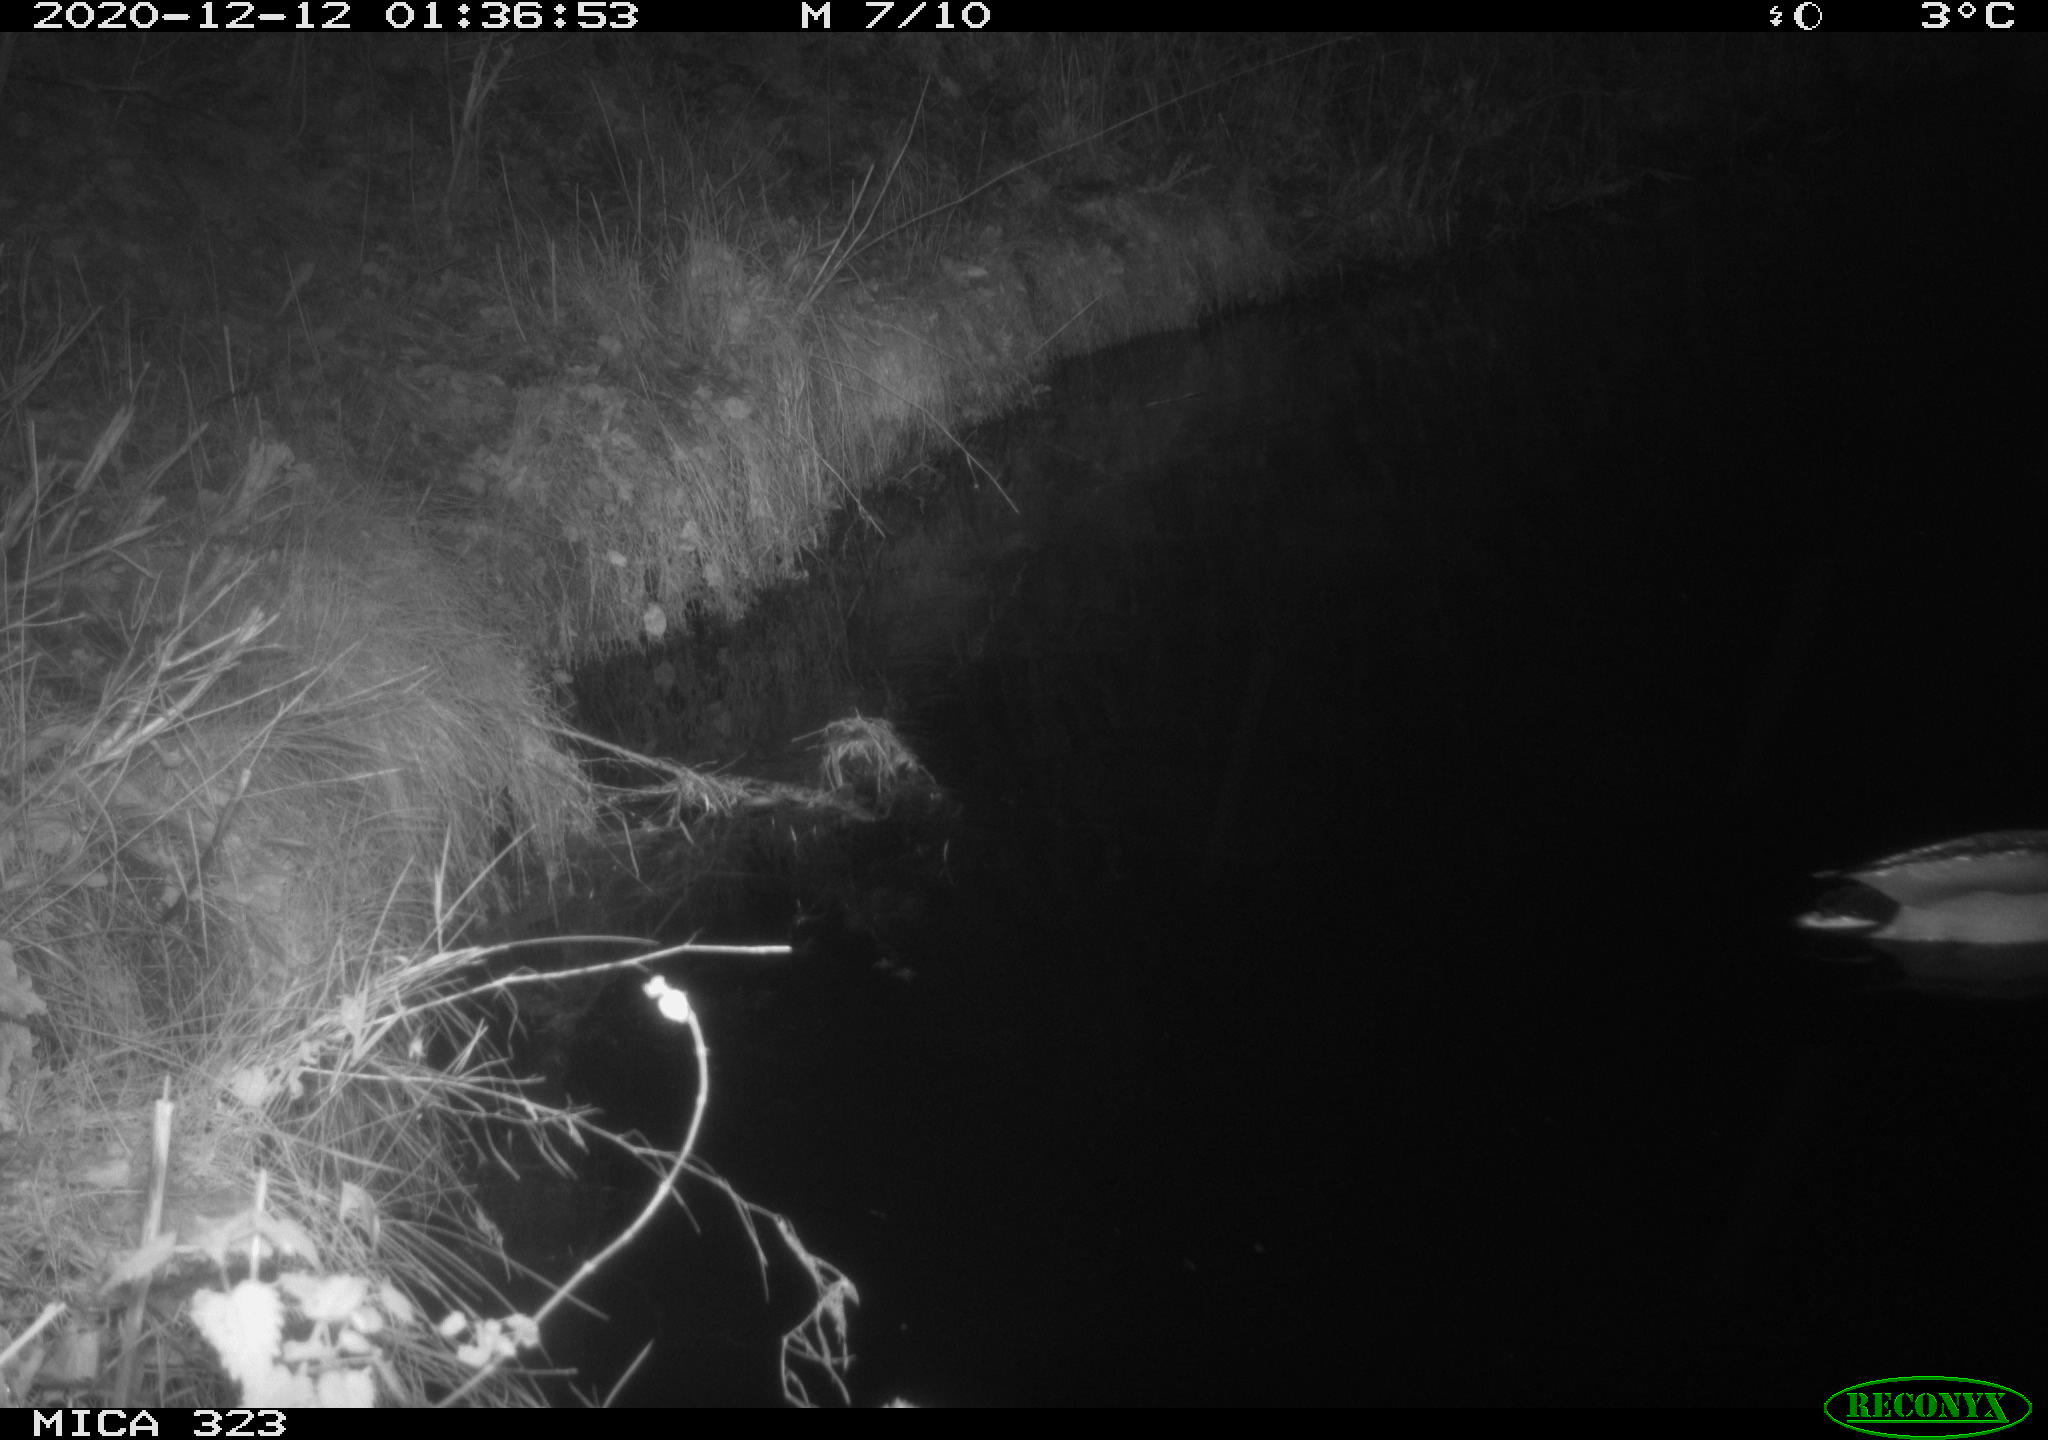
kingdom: Animalia
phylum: Chordata
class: Aves
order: Anseriformes
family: Anatidae
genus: Anas
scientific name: Anas platyrhynchos
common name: Mallard
